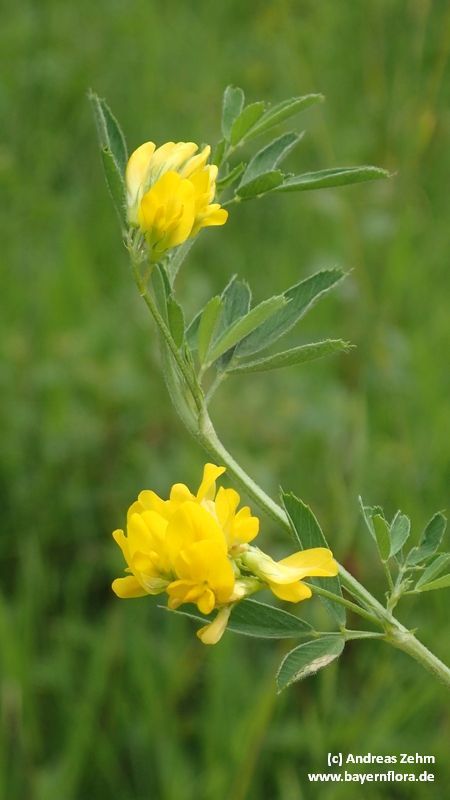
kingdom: Plantae
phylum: Tracheophyta
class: Magnoliopsida
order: Fabales
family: Fabaceae
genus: Medicago
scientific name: Medicago falcata
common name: Sickle medick
